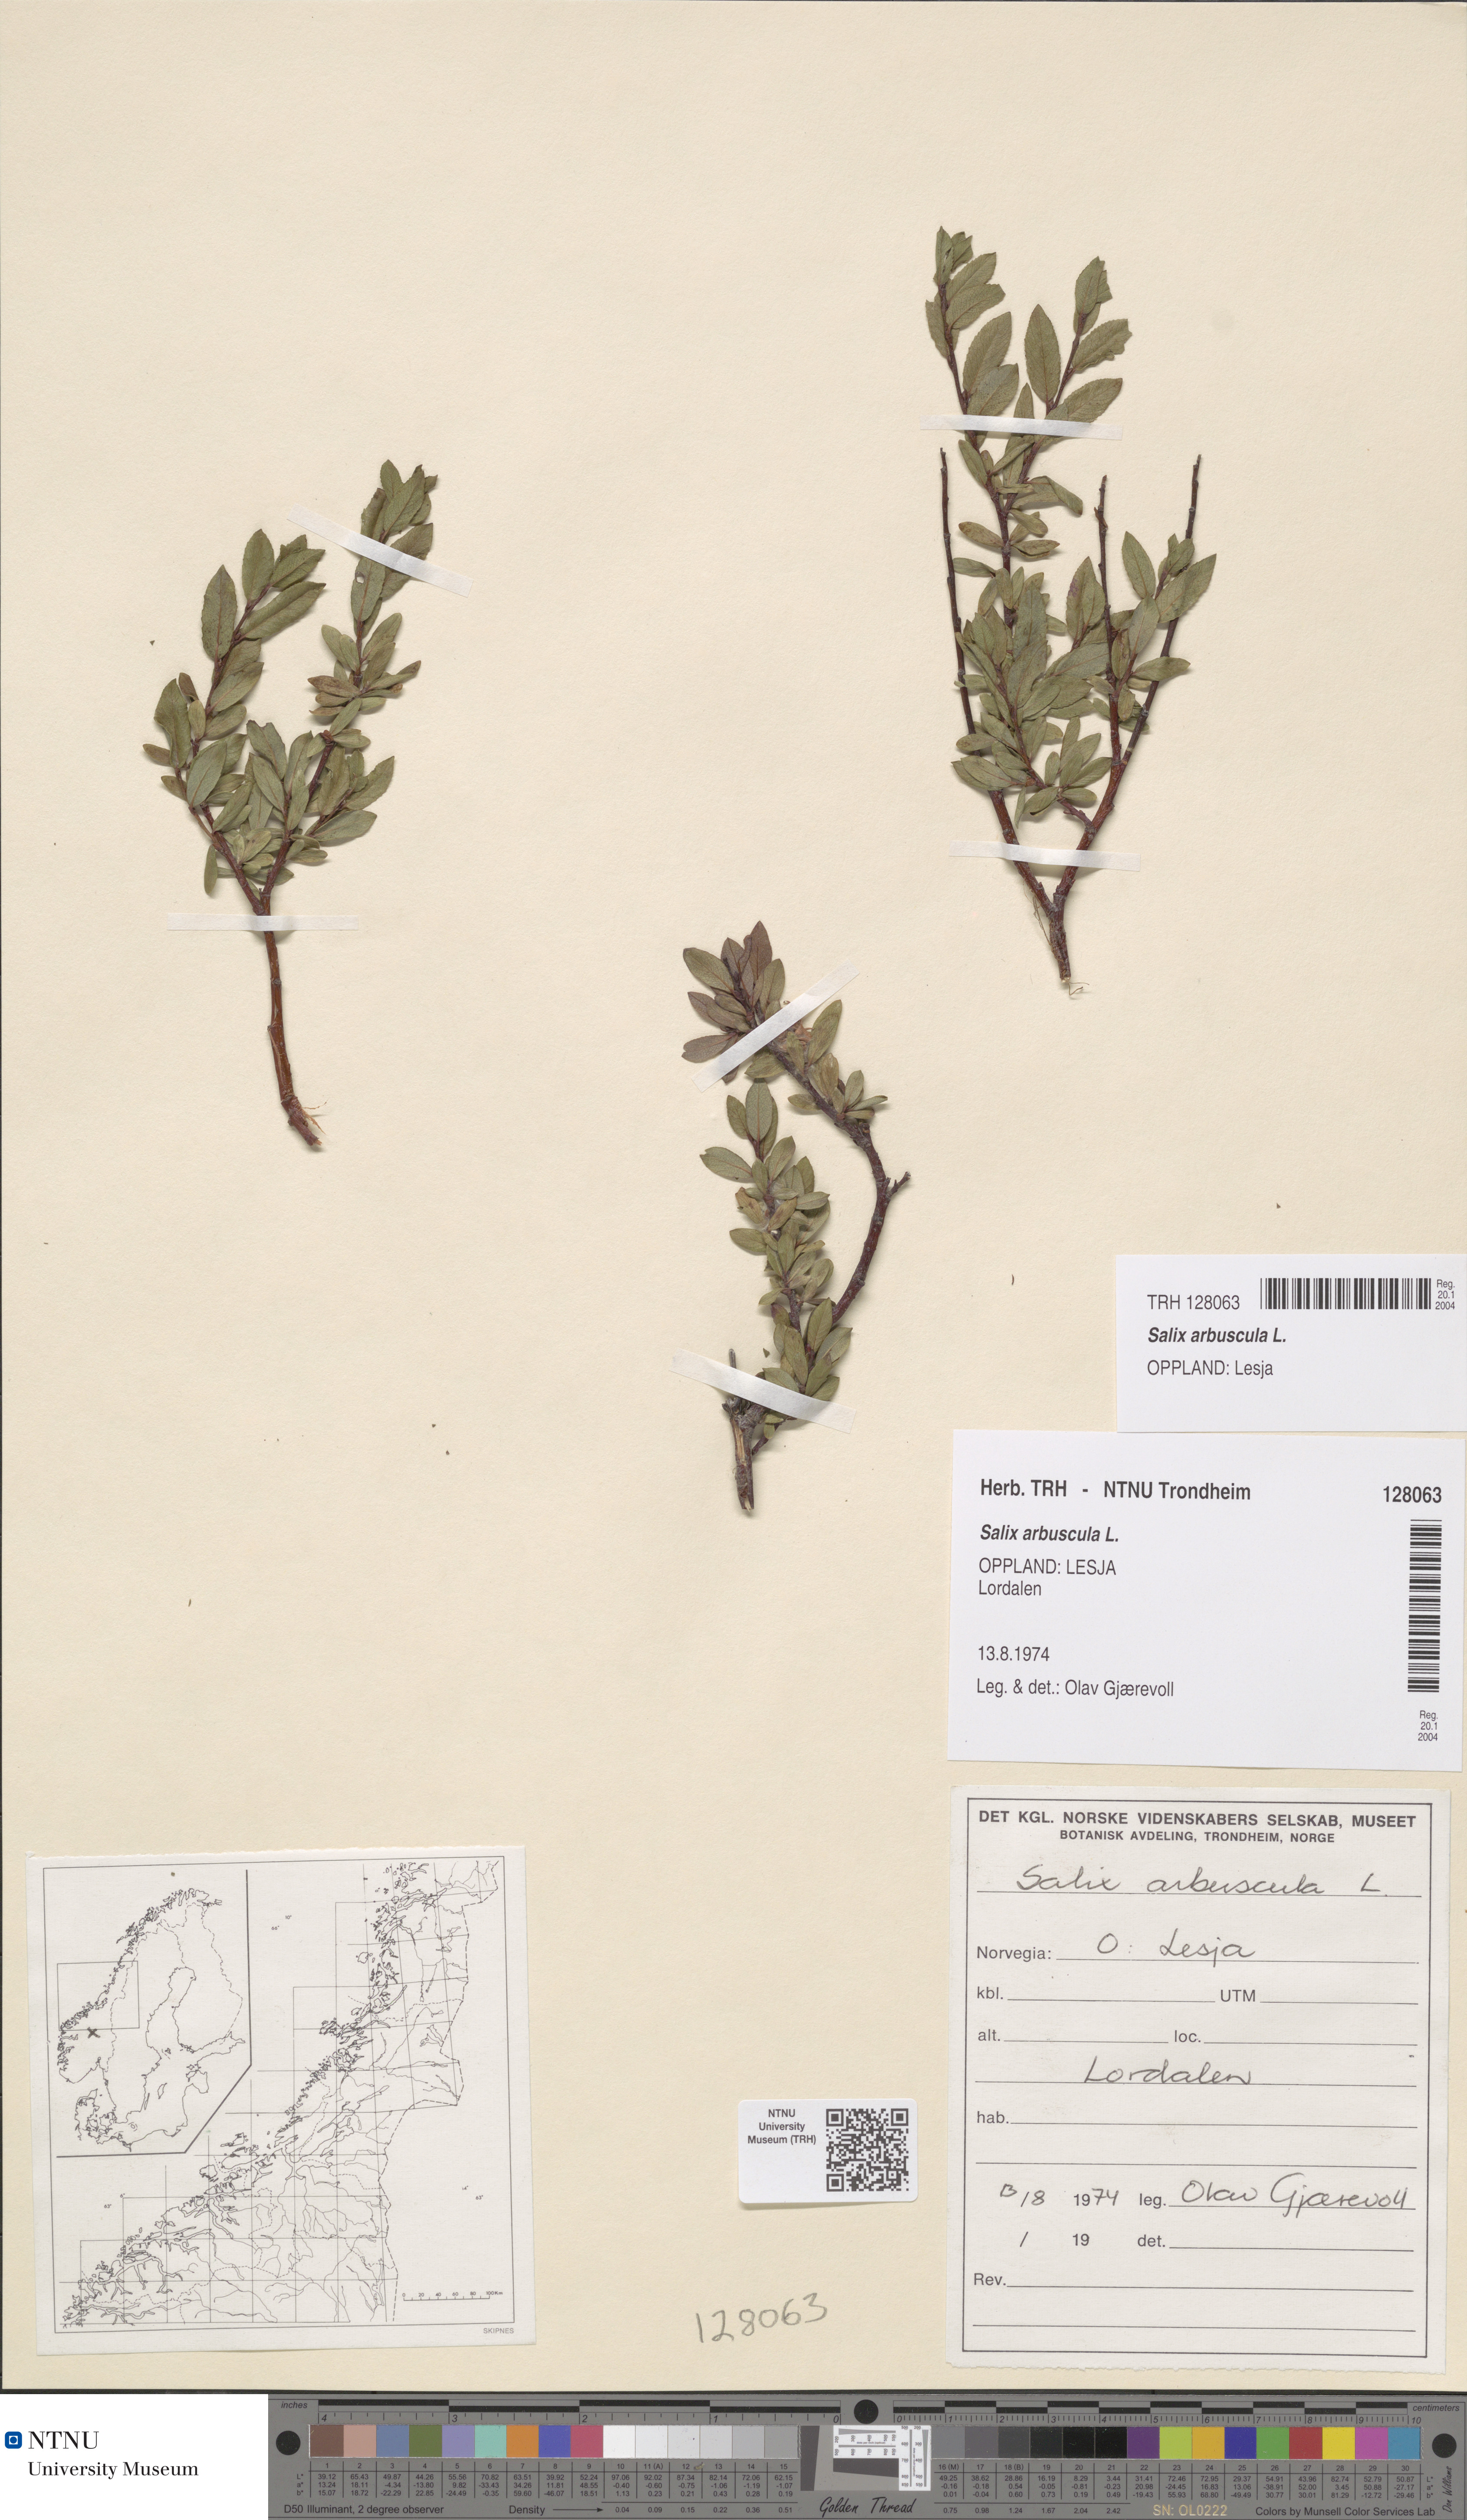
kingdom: Plantae
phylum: Tracheophyta
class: Magnoliopsida
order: Malpighiales
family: Salicaceae
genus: Salix
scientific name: Salix arbuscula
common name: Mountain willow
